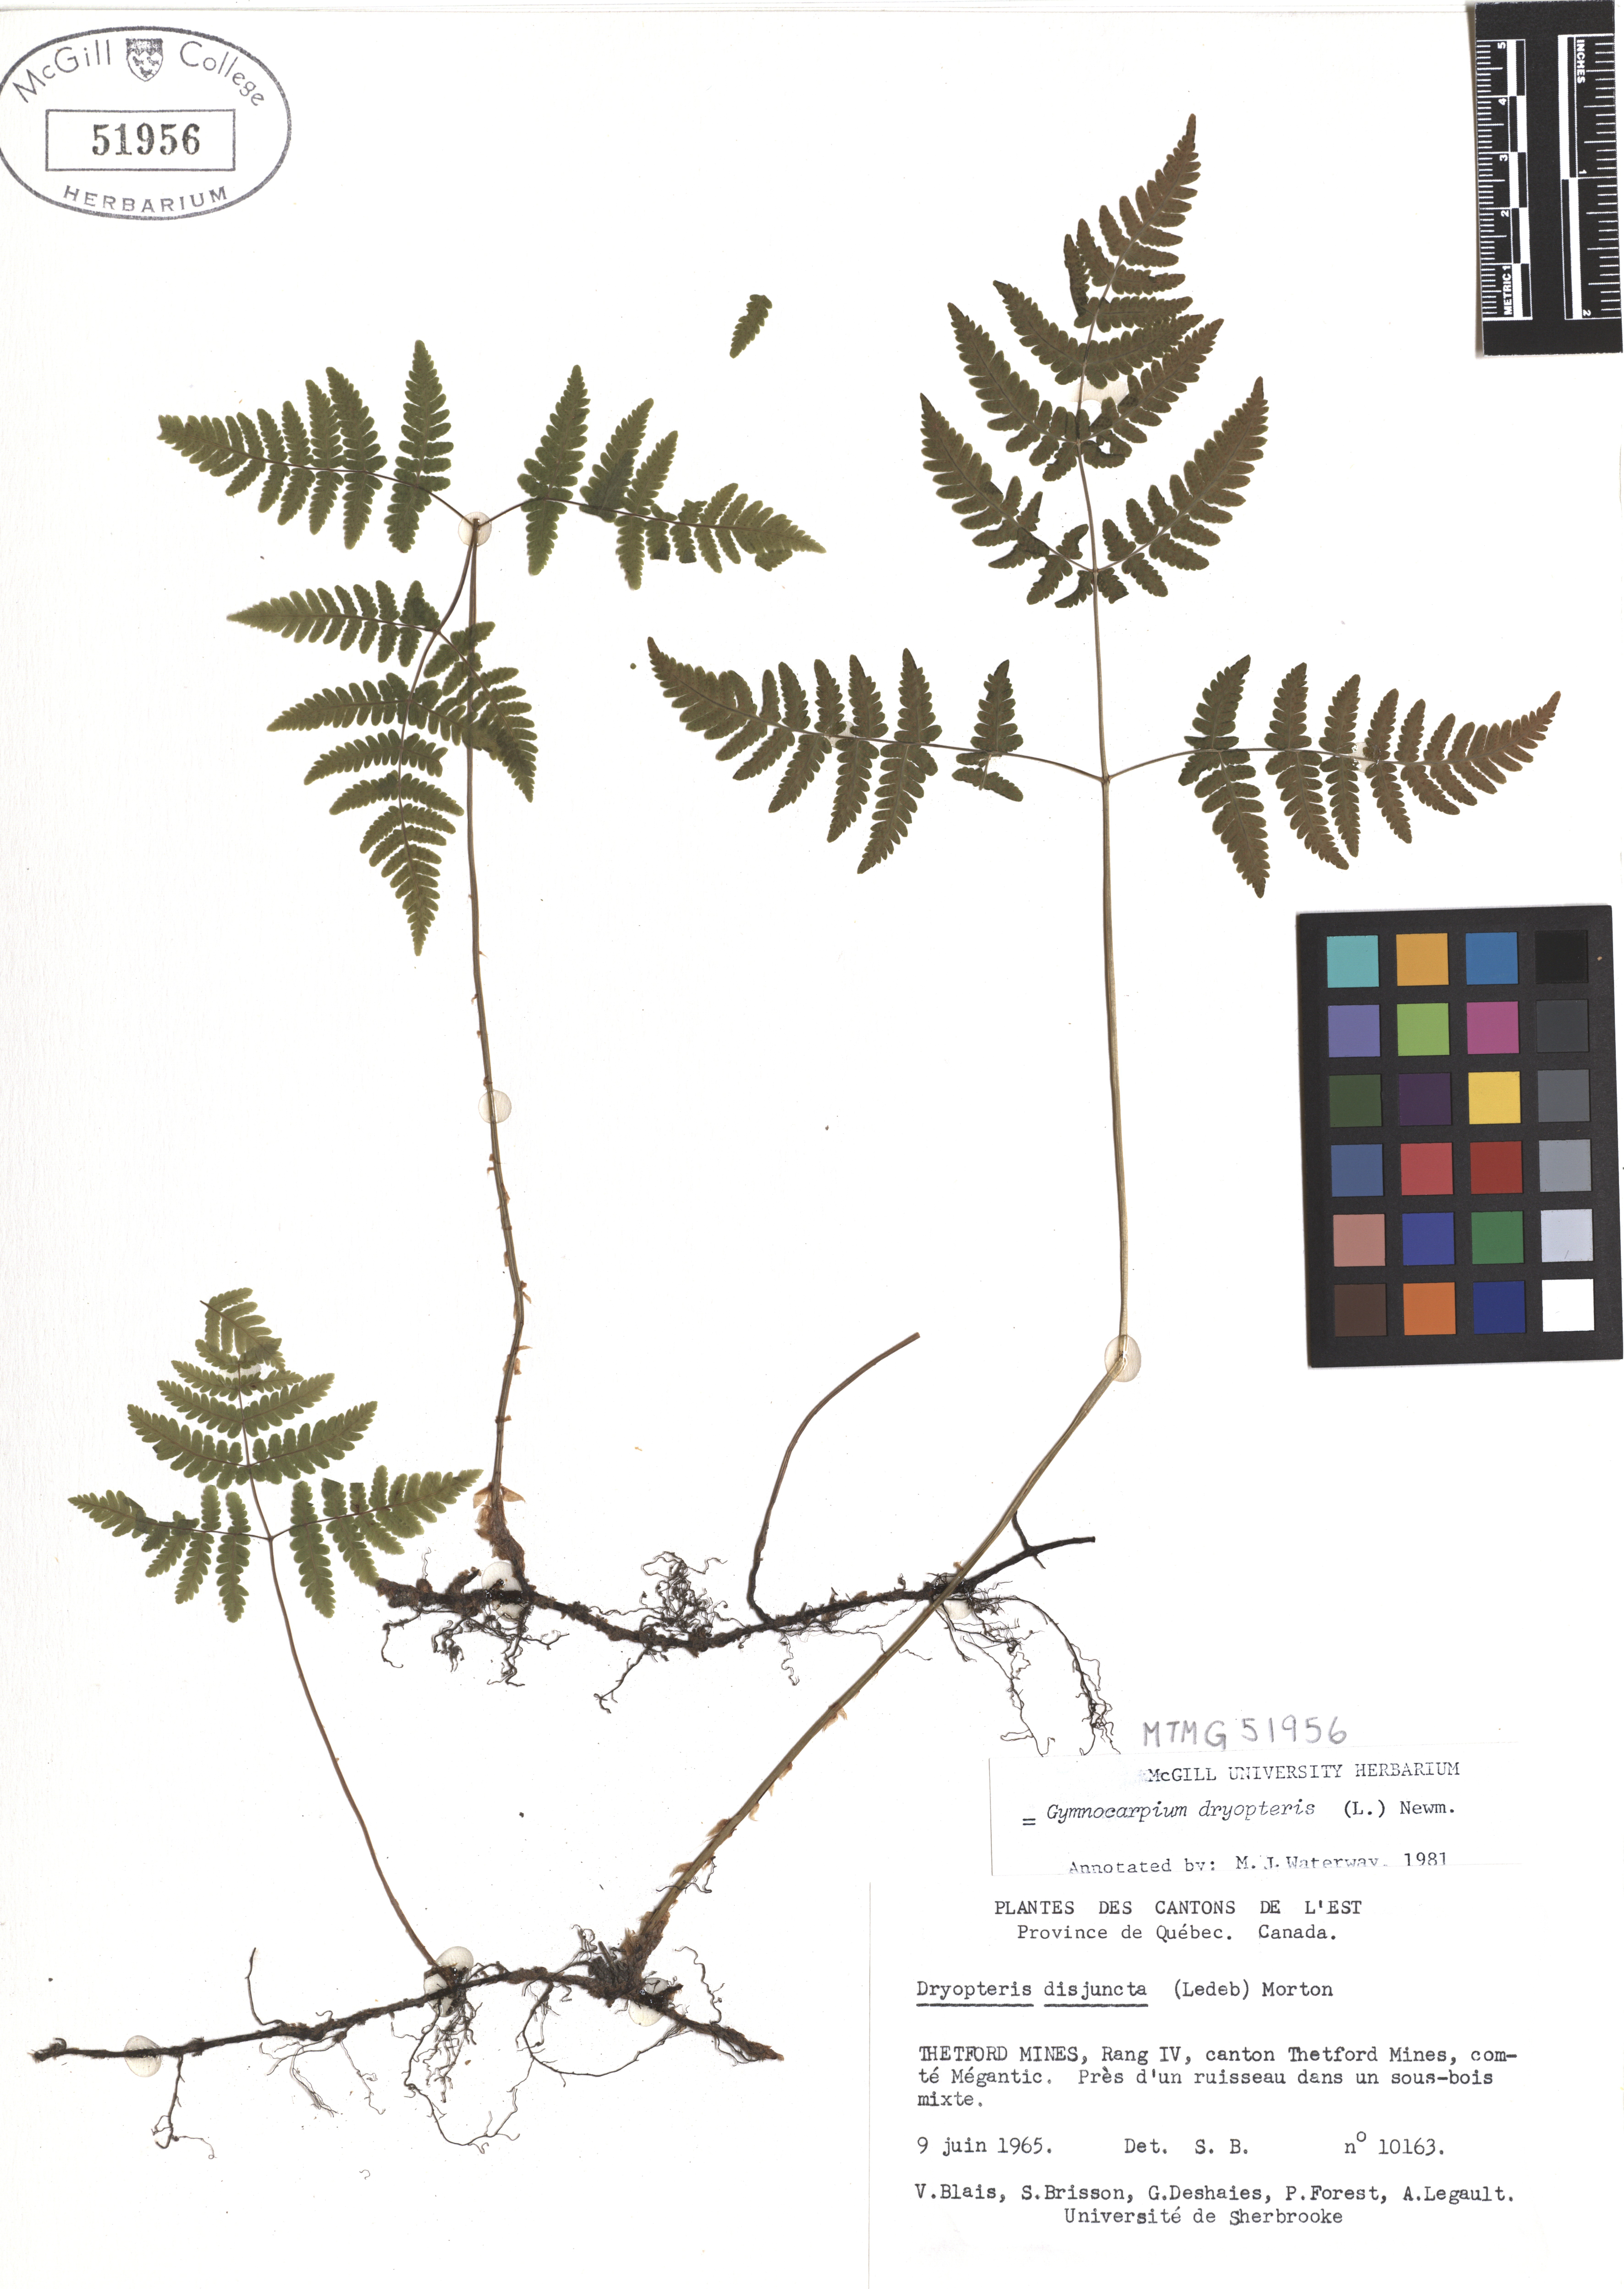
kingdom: Plantae
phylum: Tracheophyta
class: Polypodiopsida
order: Polypodiales
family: Cystopteridaceae
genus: Gymnocarpium
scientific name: Gymnocarpium dryopteris
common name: Oak fern
